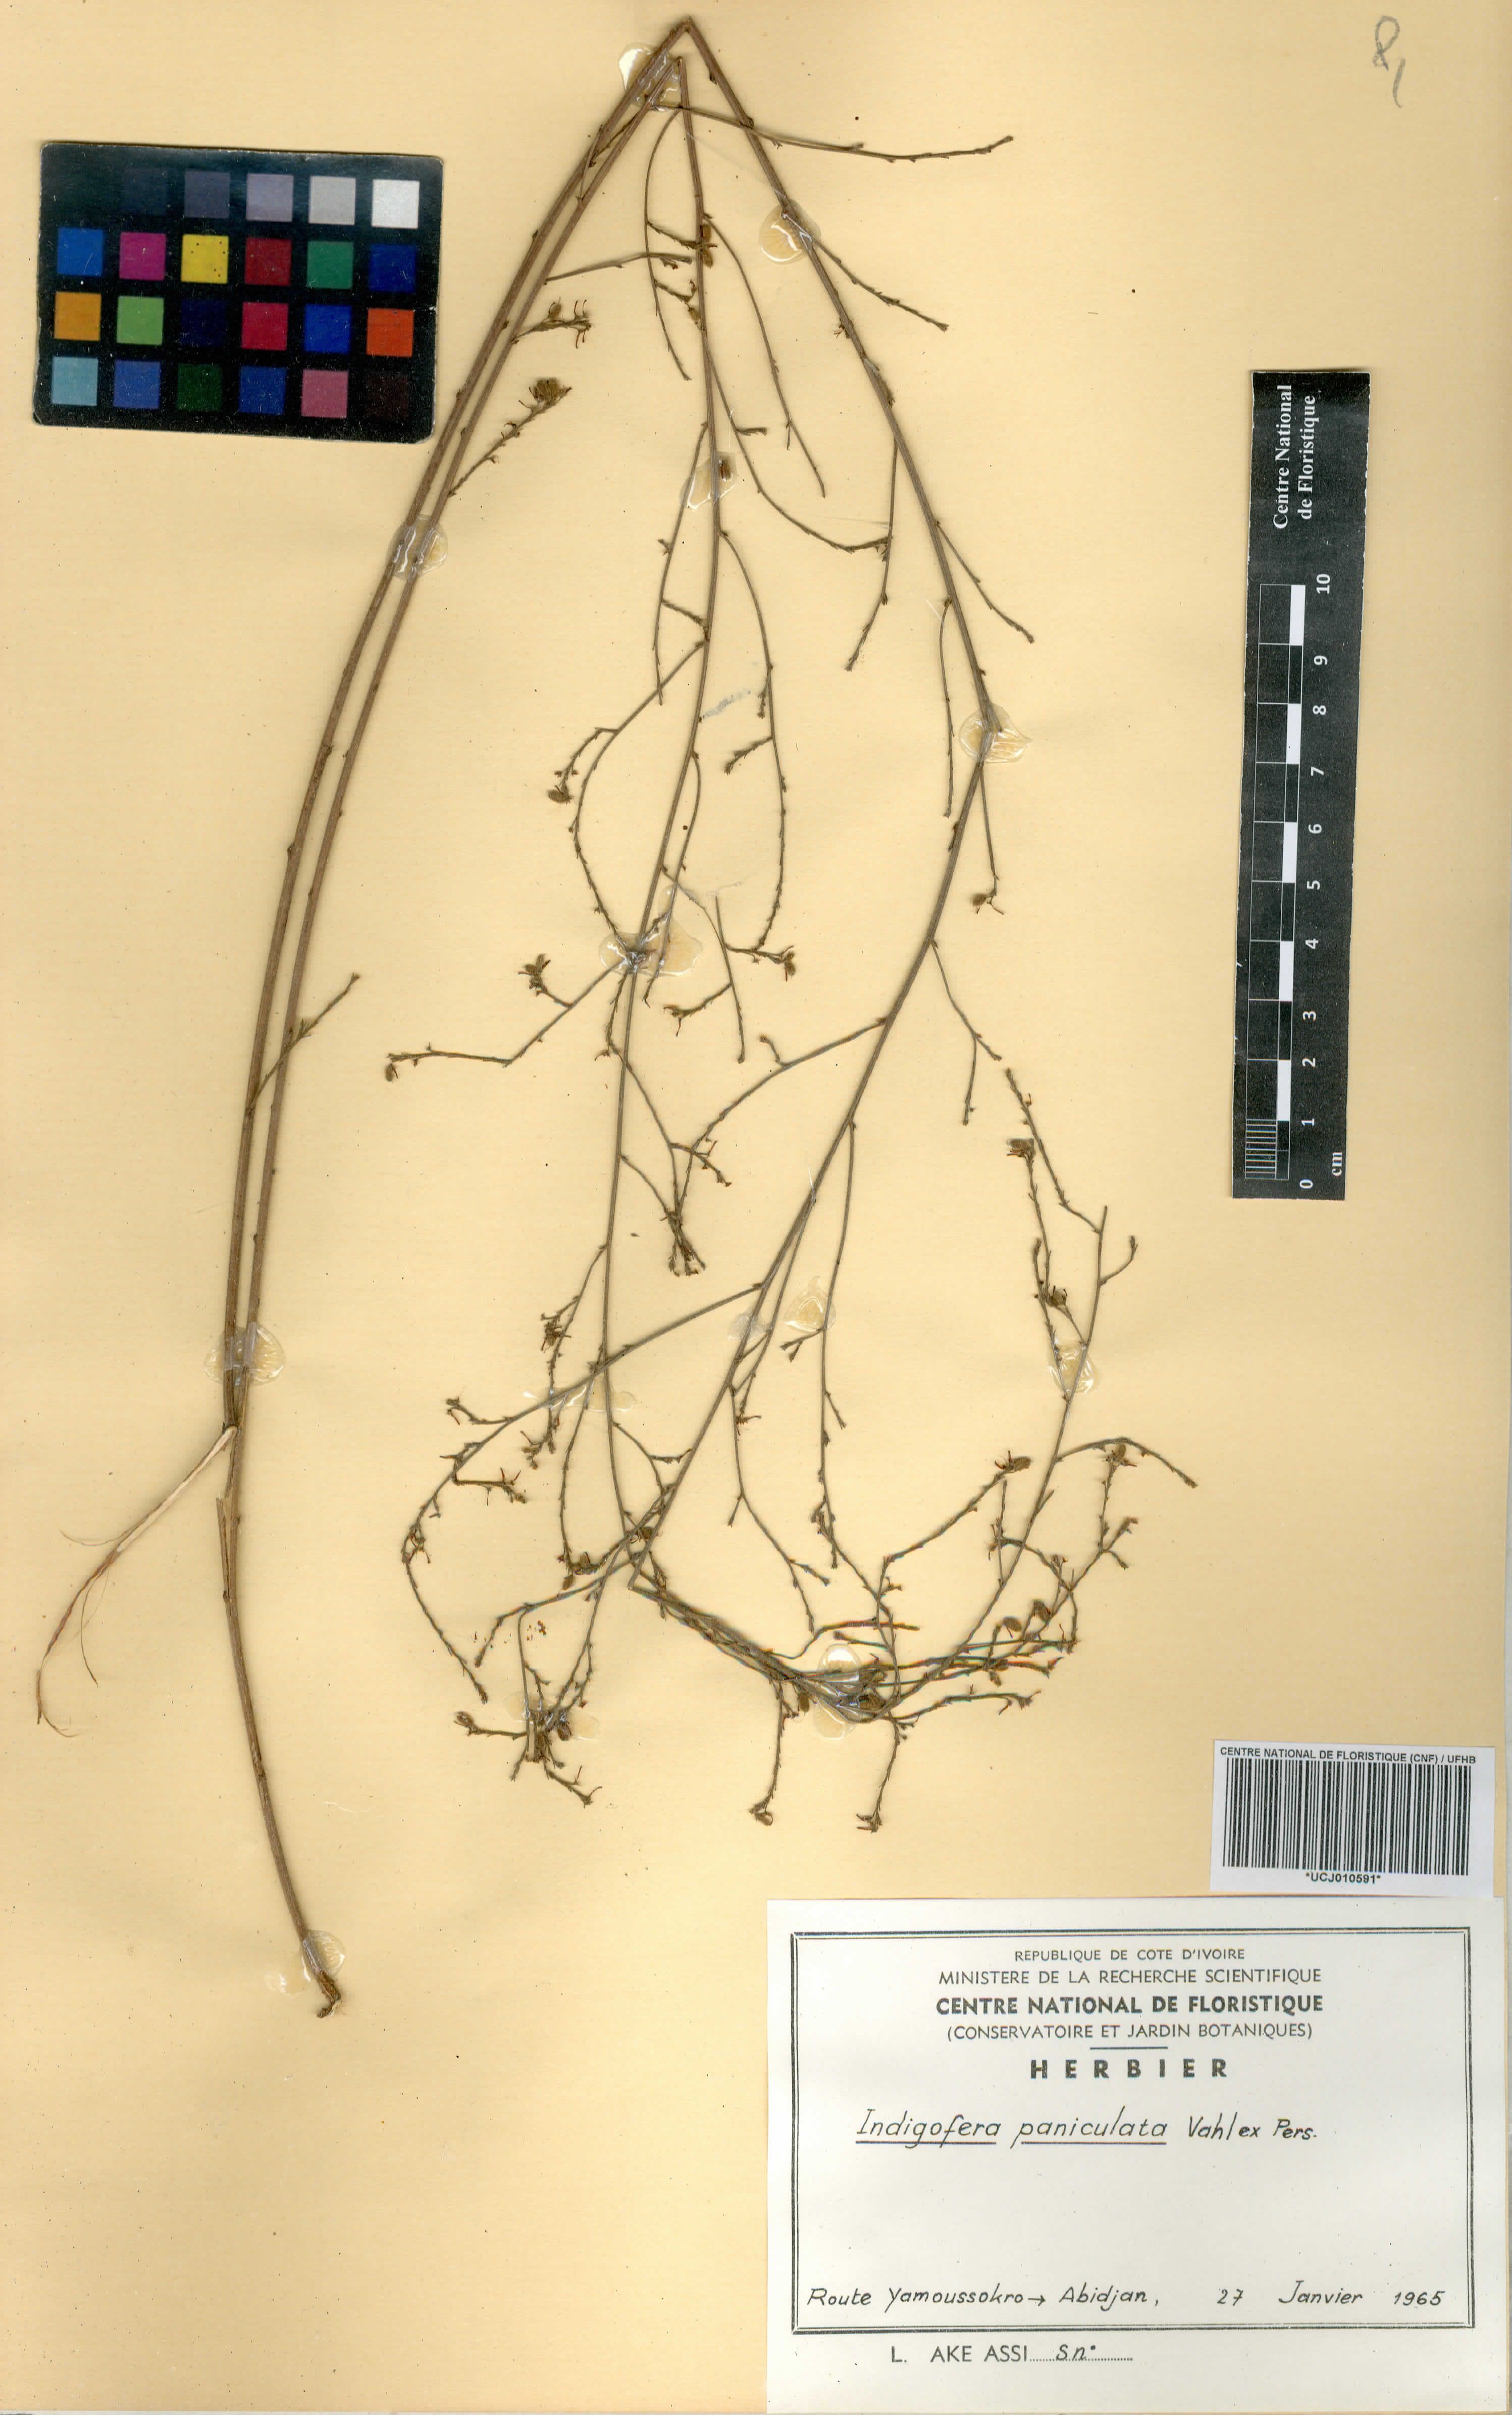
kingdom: Plantae
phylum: Tracheophyta
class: Magnoliopsida
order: Fabales
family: Fabaceae
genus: Indigofera
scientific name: Indigofera paniculata
